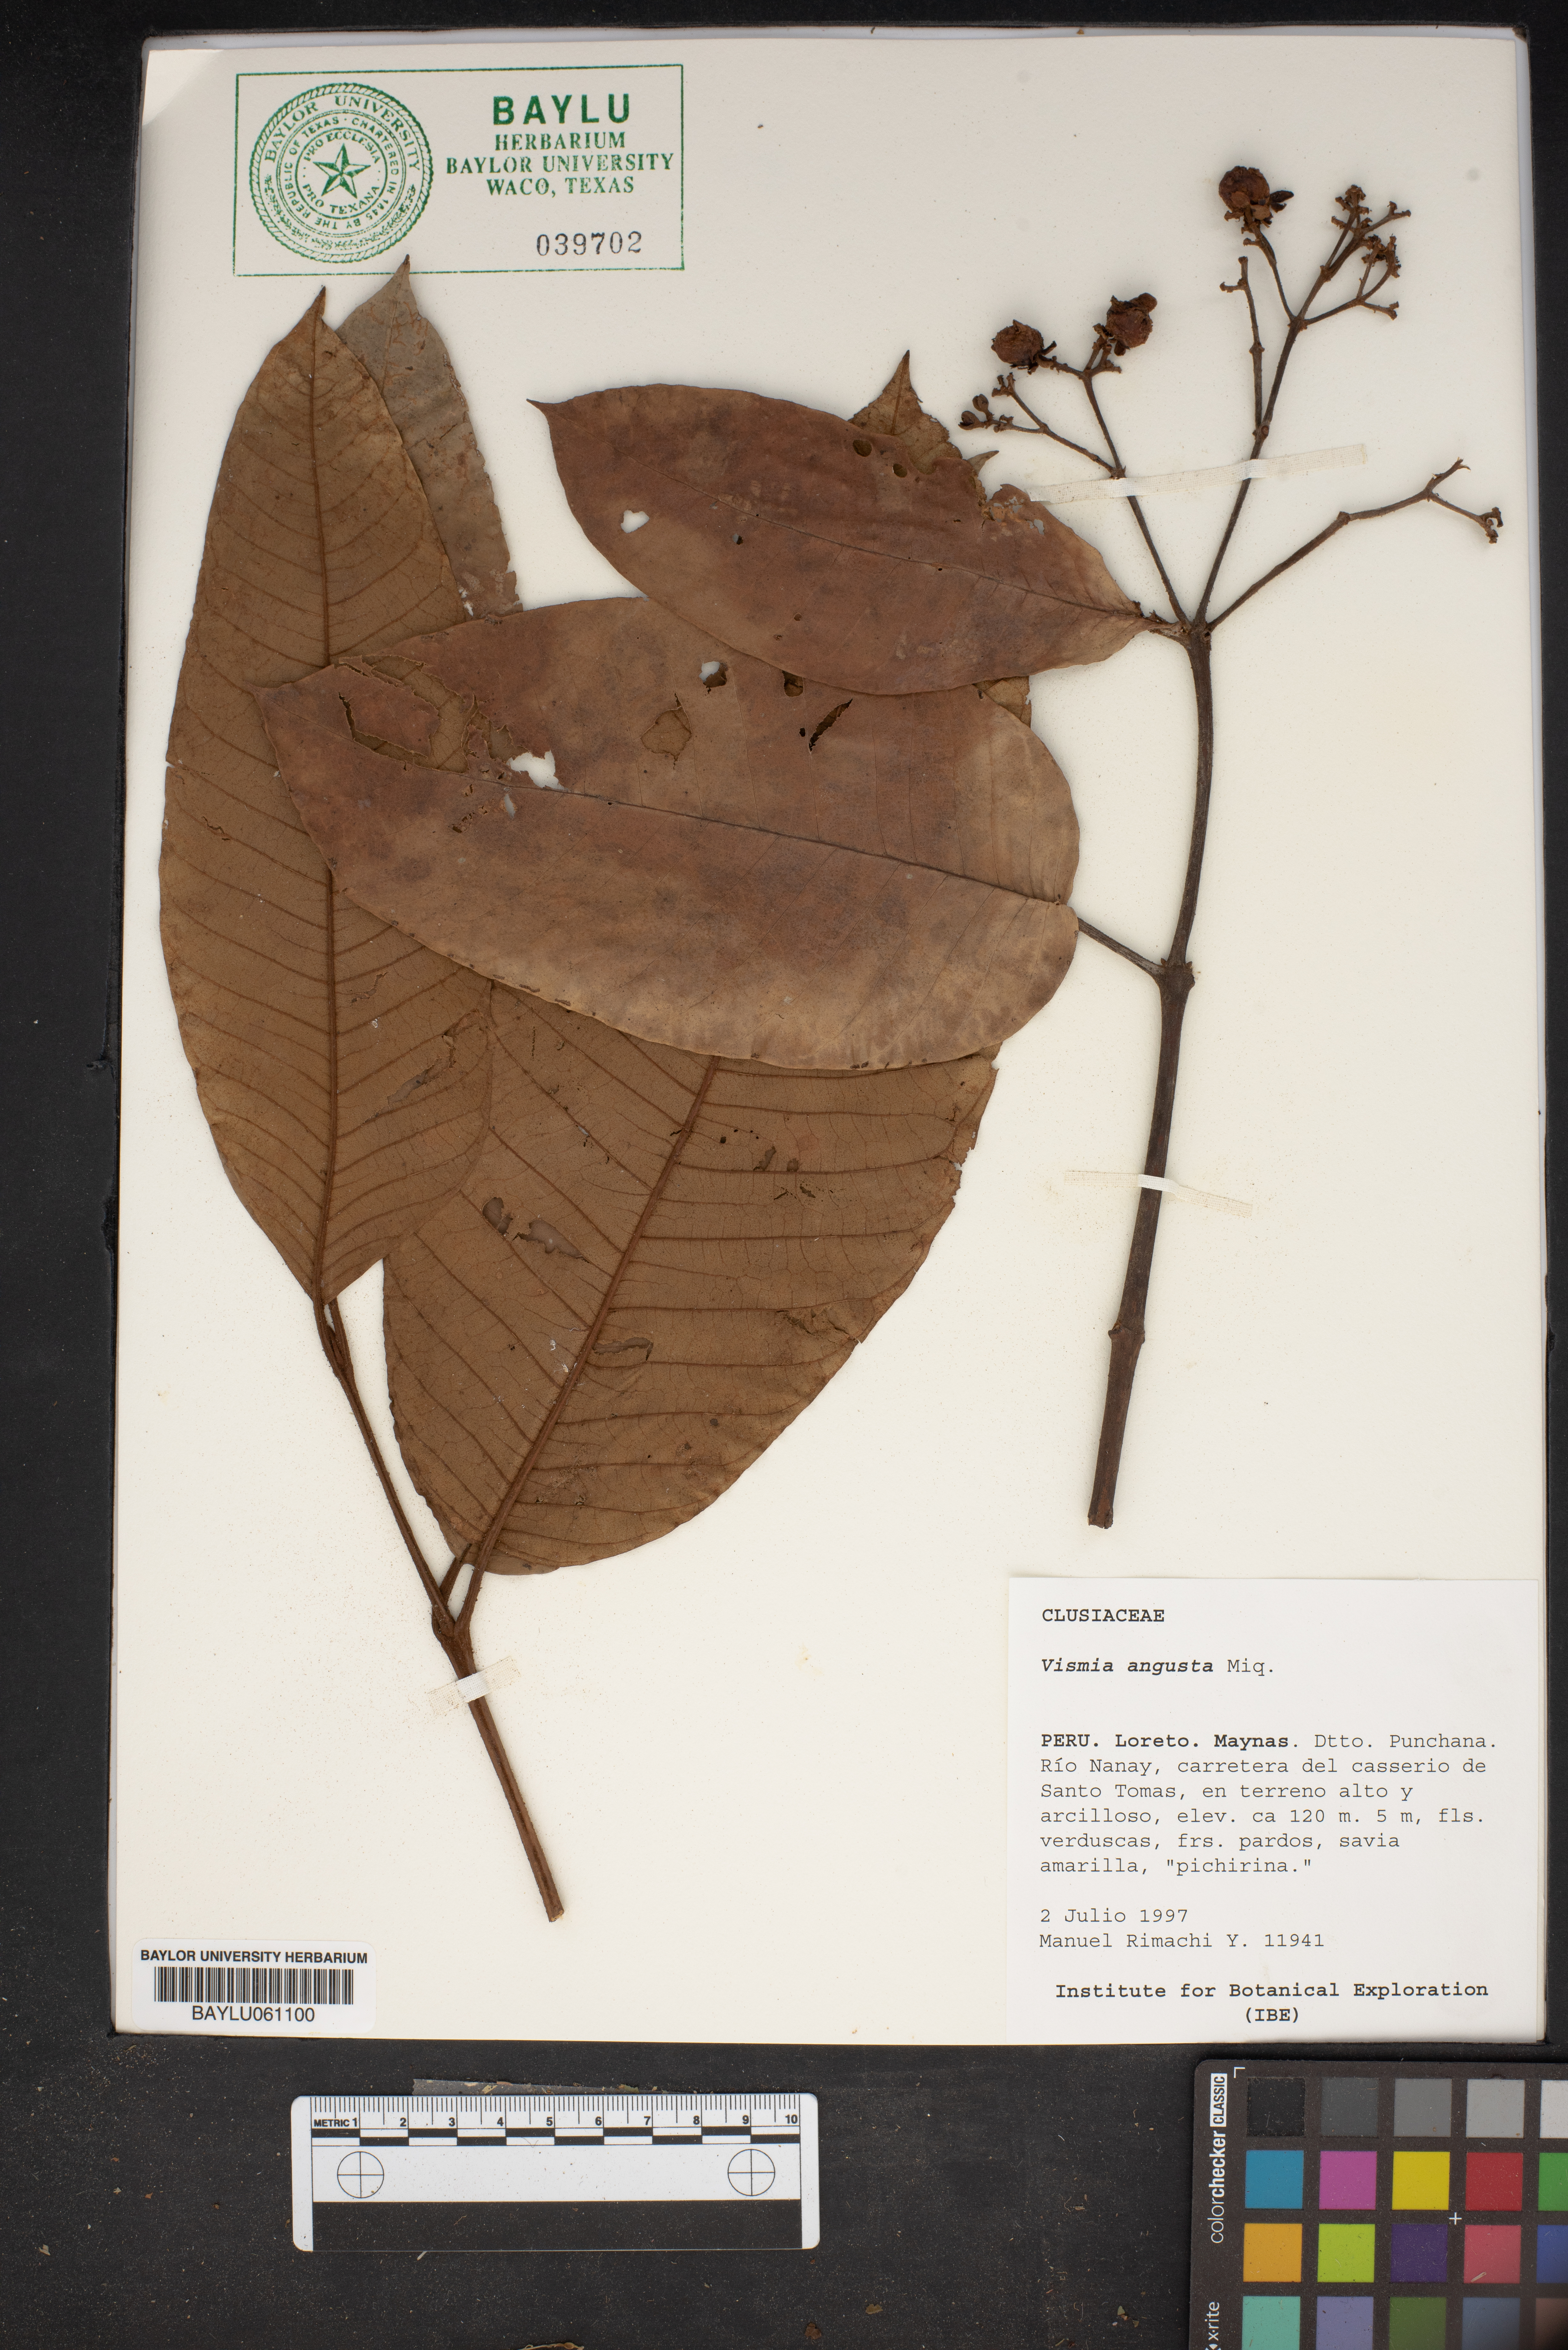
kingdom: Plantae
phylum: Tracheophyta
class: Magnoliopsida
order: Malpighiales
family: Hypericaceae
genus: Vismia
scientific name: Vismia macrophylla
